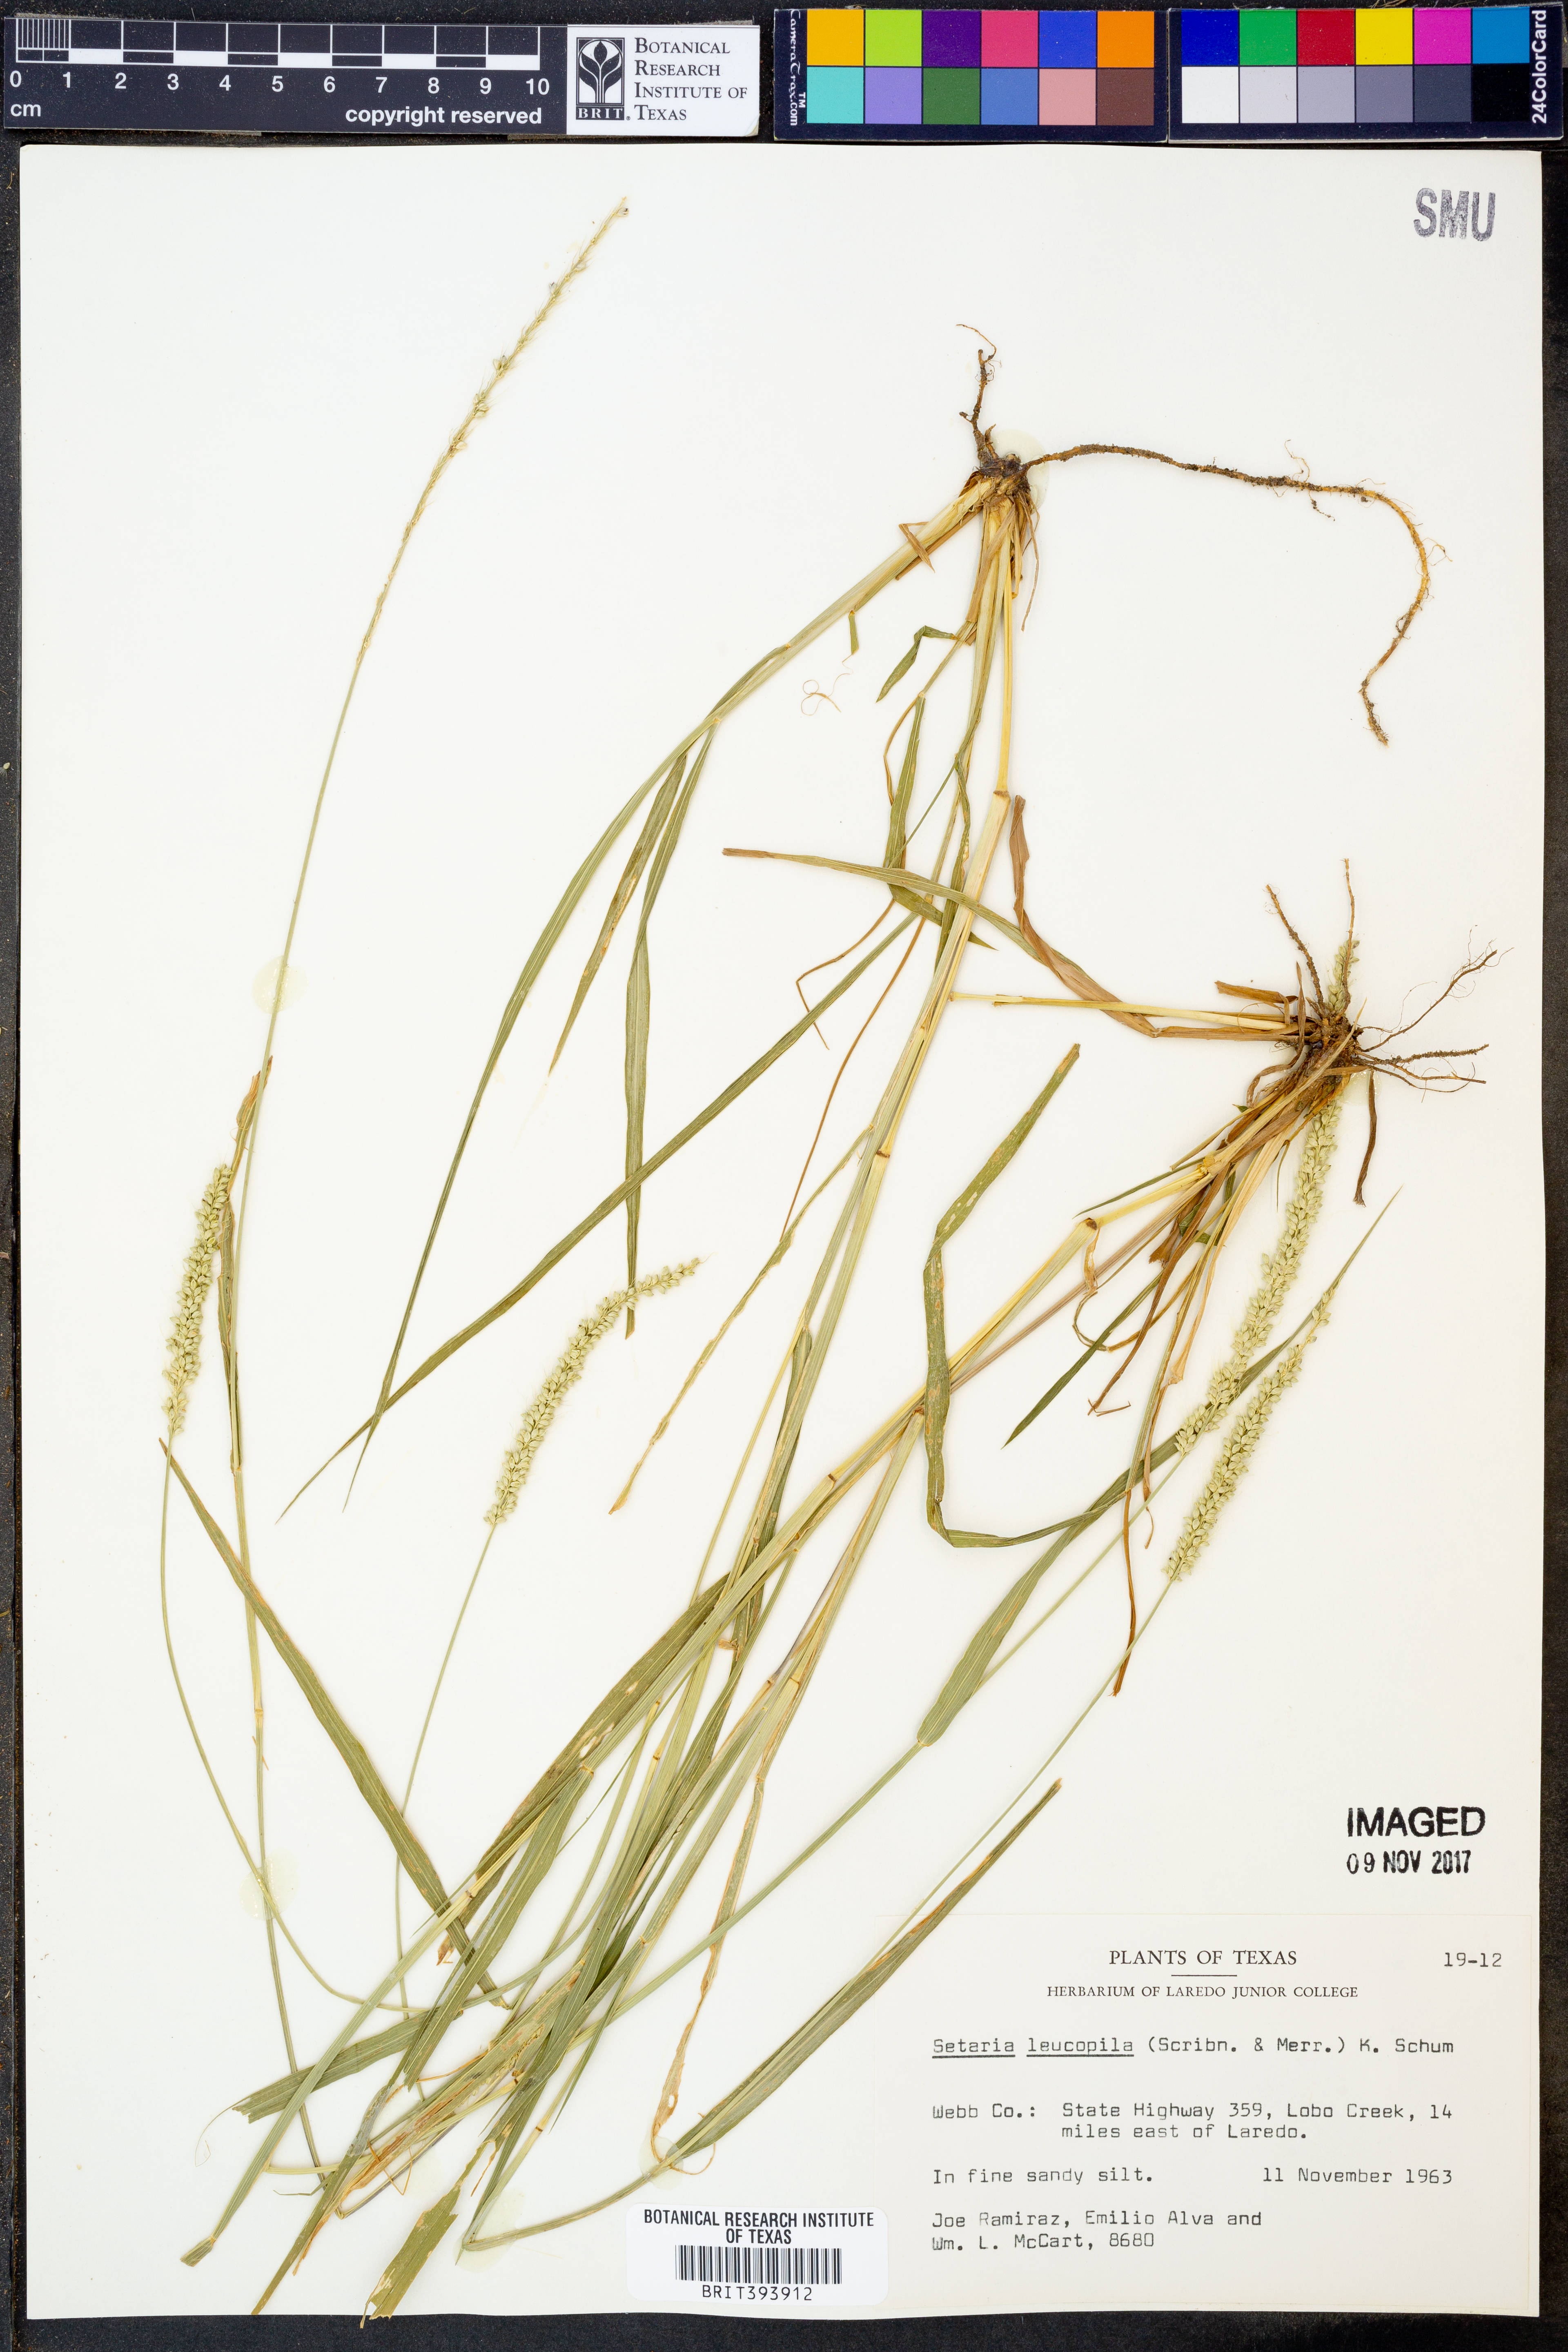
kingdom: Plantae
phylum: Tracheophyta
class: Liliopsida
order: Poales
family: Poaceae
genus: Setaria
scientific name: Setaria leucopila
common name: Plains bristle grass
